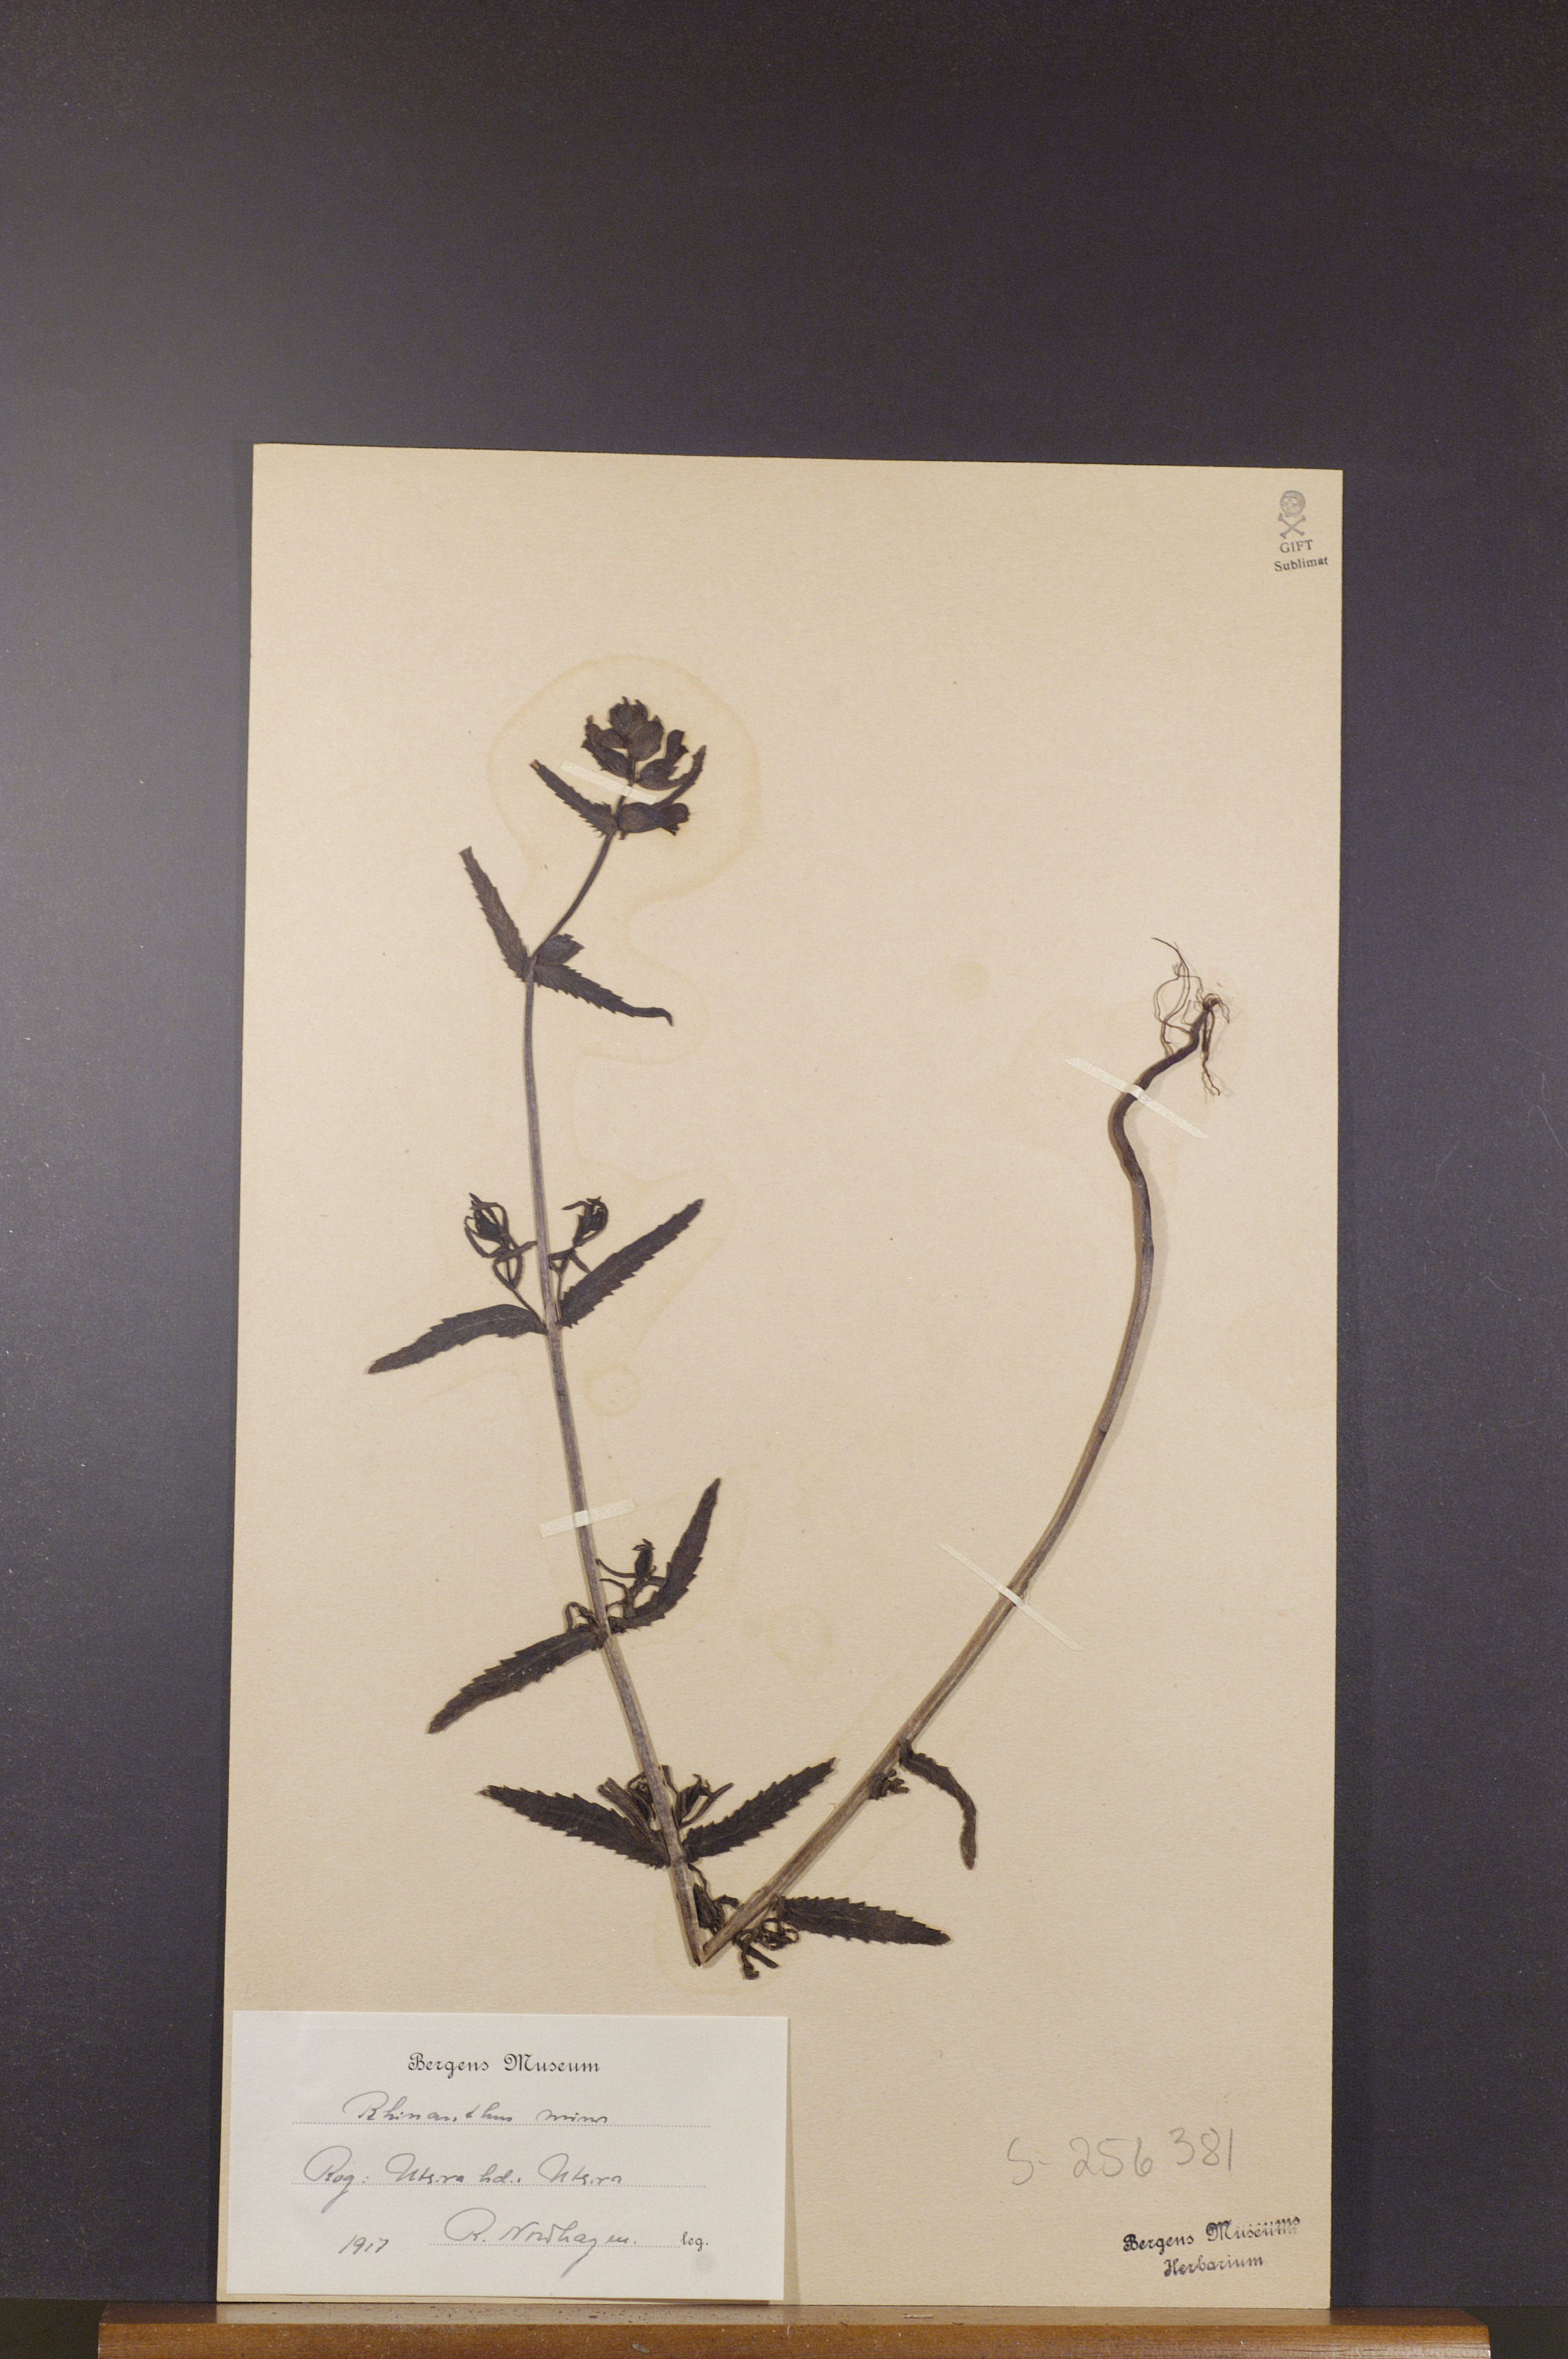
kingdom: Plantae
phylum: Tracheophyta
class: Magnoliopsida
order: Lamiales
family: Orobanchaceae
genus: Rhinanthus
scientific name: Rhinanthus minor
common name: Yellow-rattle
